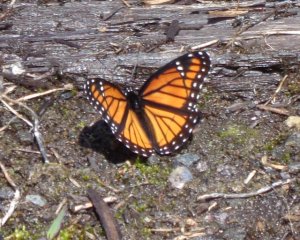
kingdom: Animalia
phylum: Arthropoda
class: Insecta
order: Lepidoptera
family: Nymphalidae
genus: Limenitis
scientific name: Limenitis archippus
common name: Viceroy
